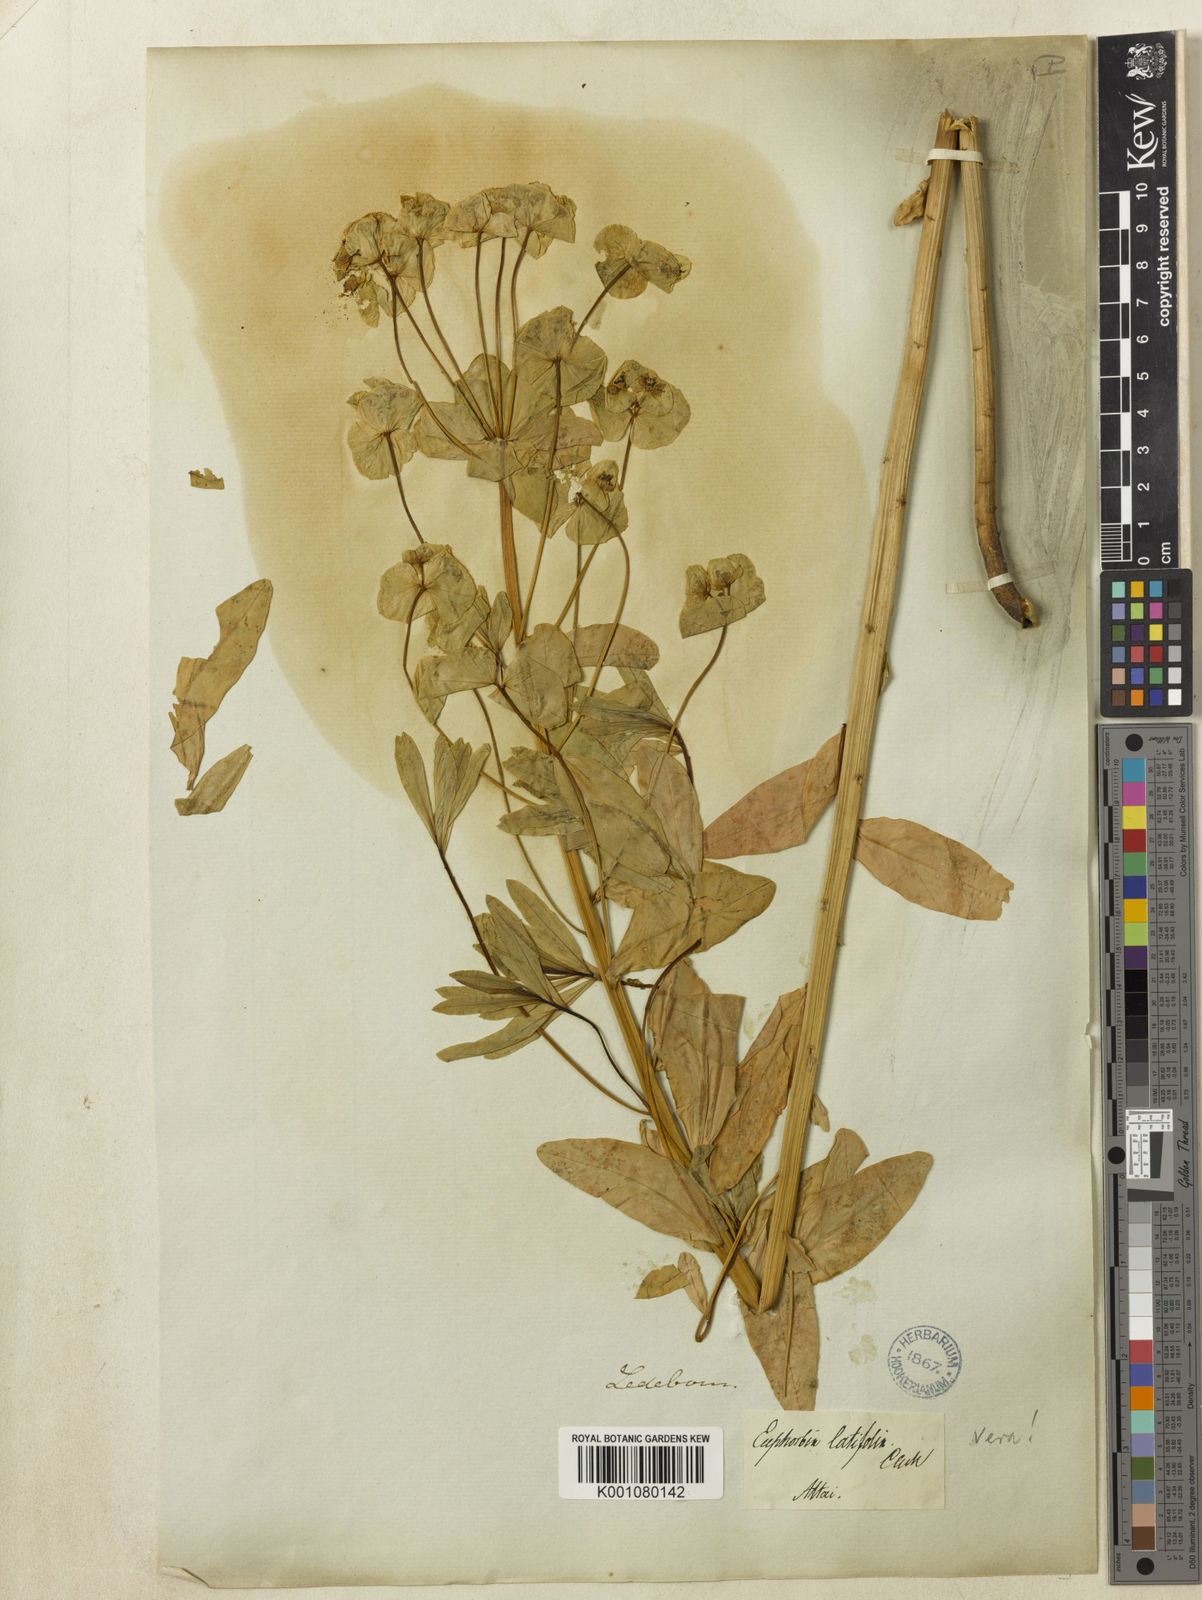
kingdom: Plantae
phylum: Tracheophyta
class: Magnoliopsida
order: Malpighiales
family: Euphorbiaceae
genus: Euphorbia
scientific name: Euphorbia
